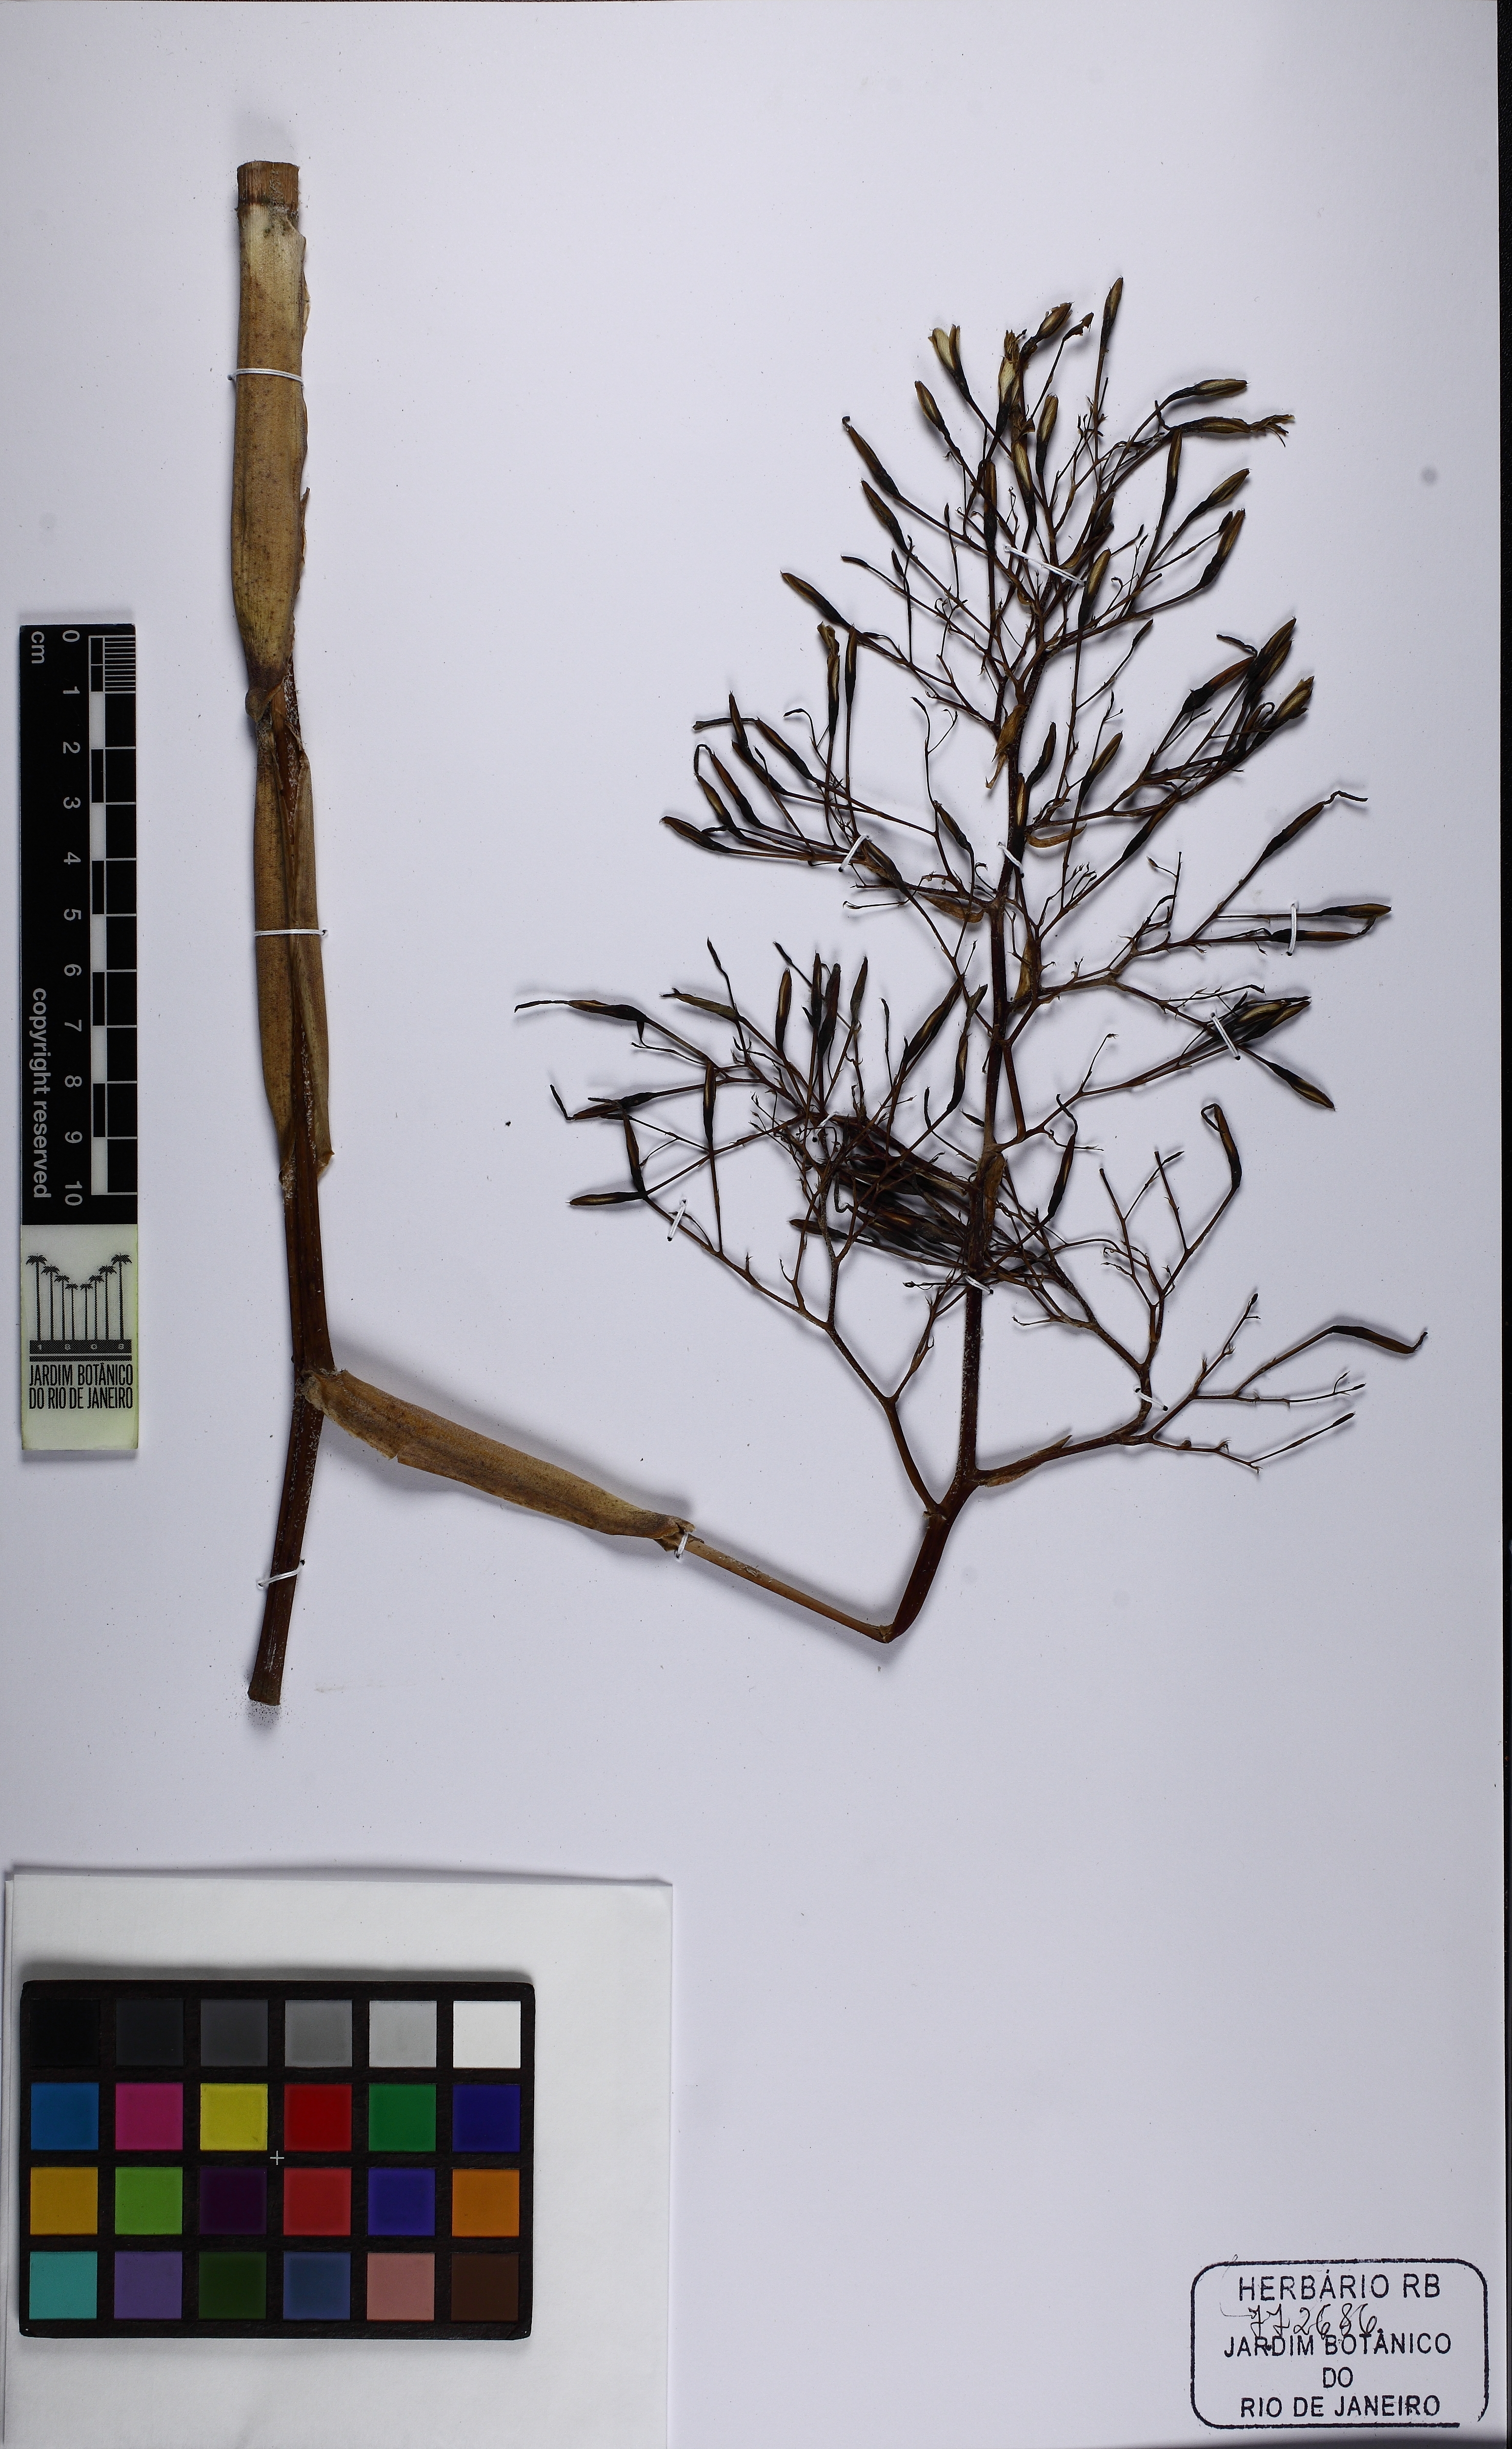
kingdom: Plantae
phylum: Tracheophyta
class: Liliopsida
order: Poales
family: Bromeliaceae
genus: Aechmea
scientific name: Aechmea leptantha
